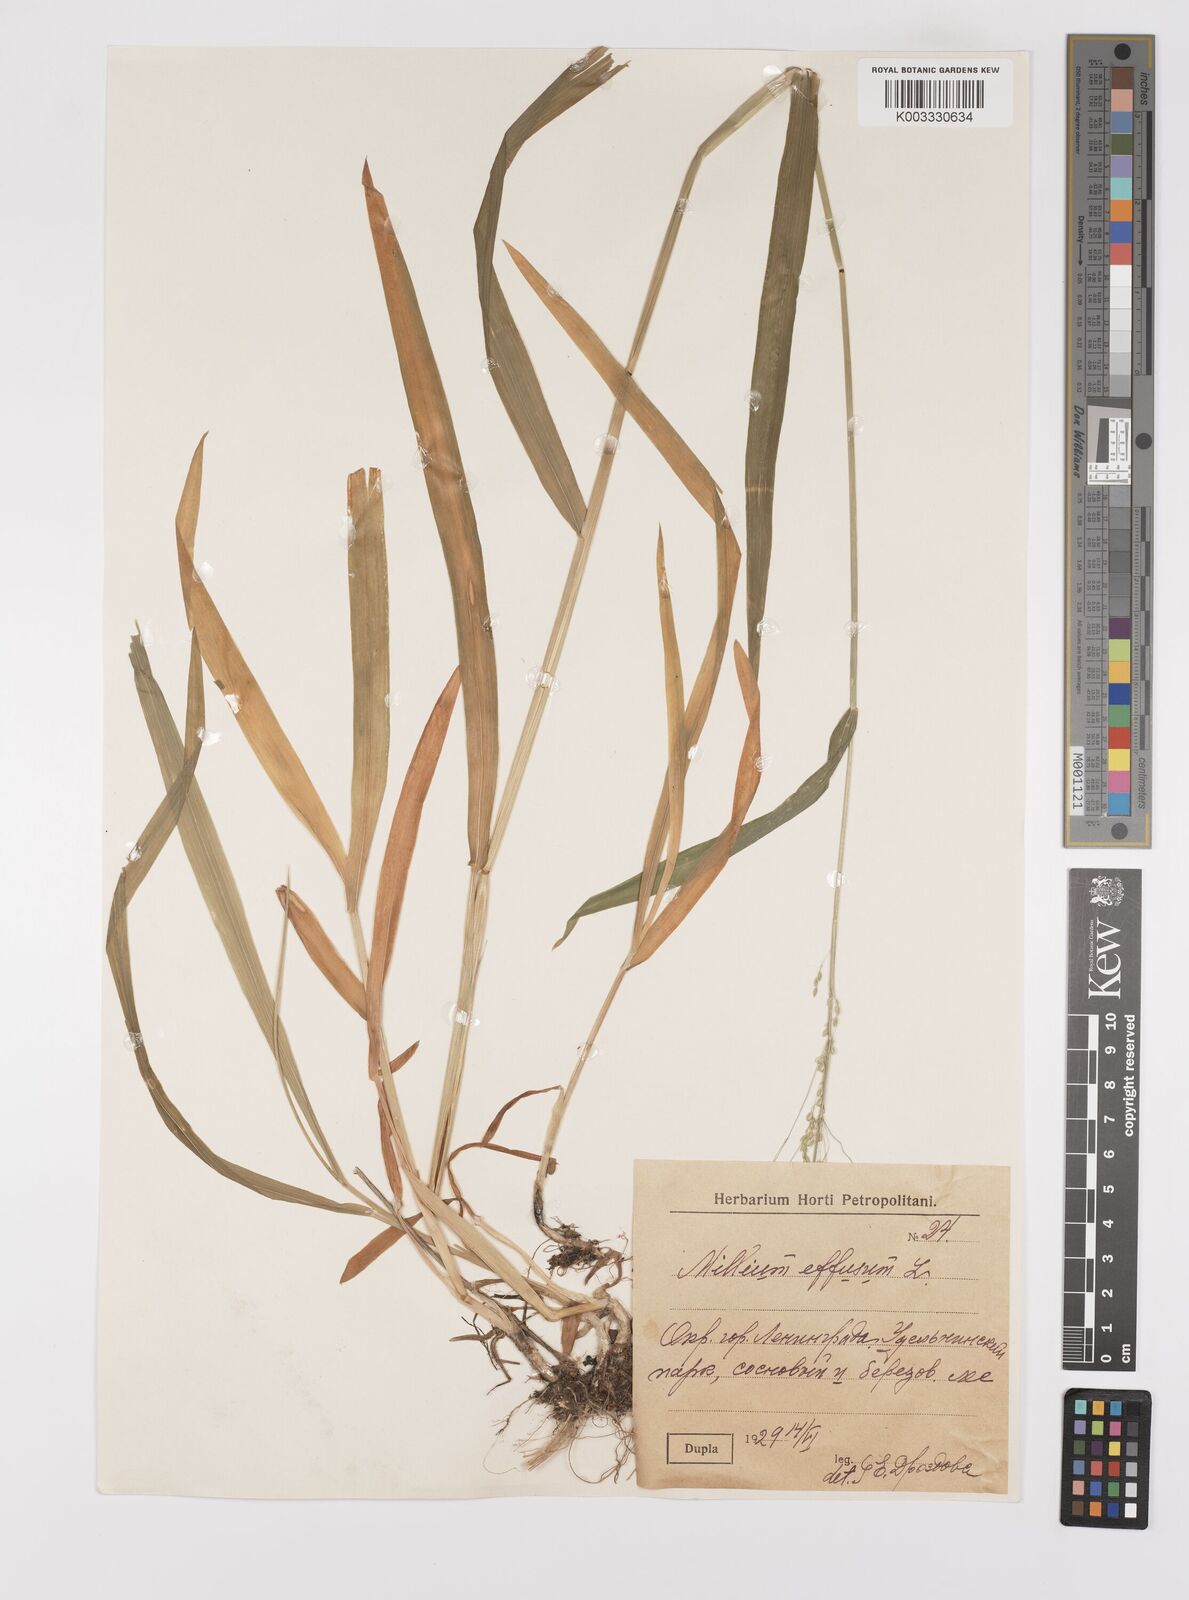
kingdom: Plantae
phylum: Tracheophyta
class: Liliopsida
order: Poales
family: Poaceae
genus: Milium
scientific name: Milium effusum
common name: Wood millet
